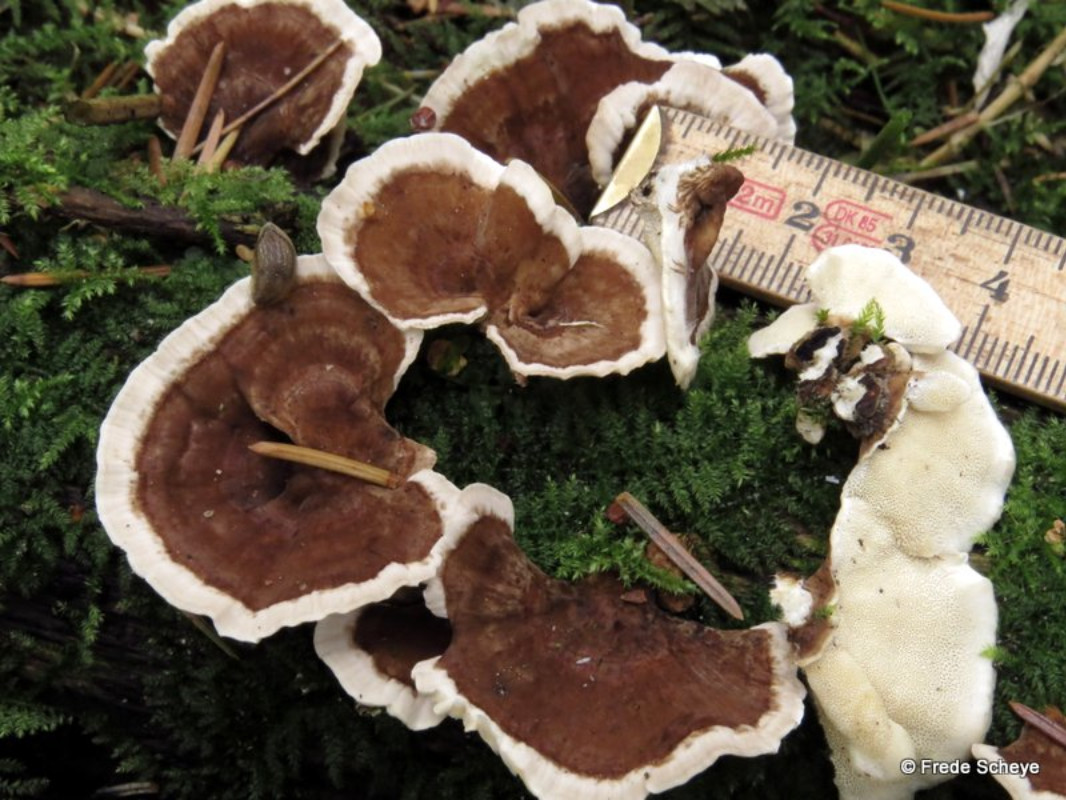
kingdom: Fungi
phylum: Basidiomycota
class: Agaricomycetes
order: Polyporales
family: Polyporaceae
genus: Trametes
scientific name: Trametes versicolor
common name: broget læderporesvamp
